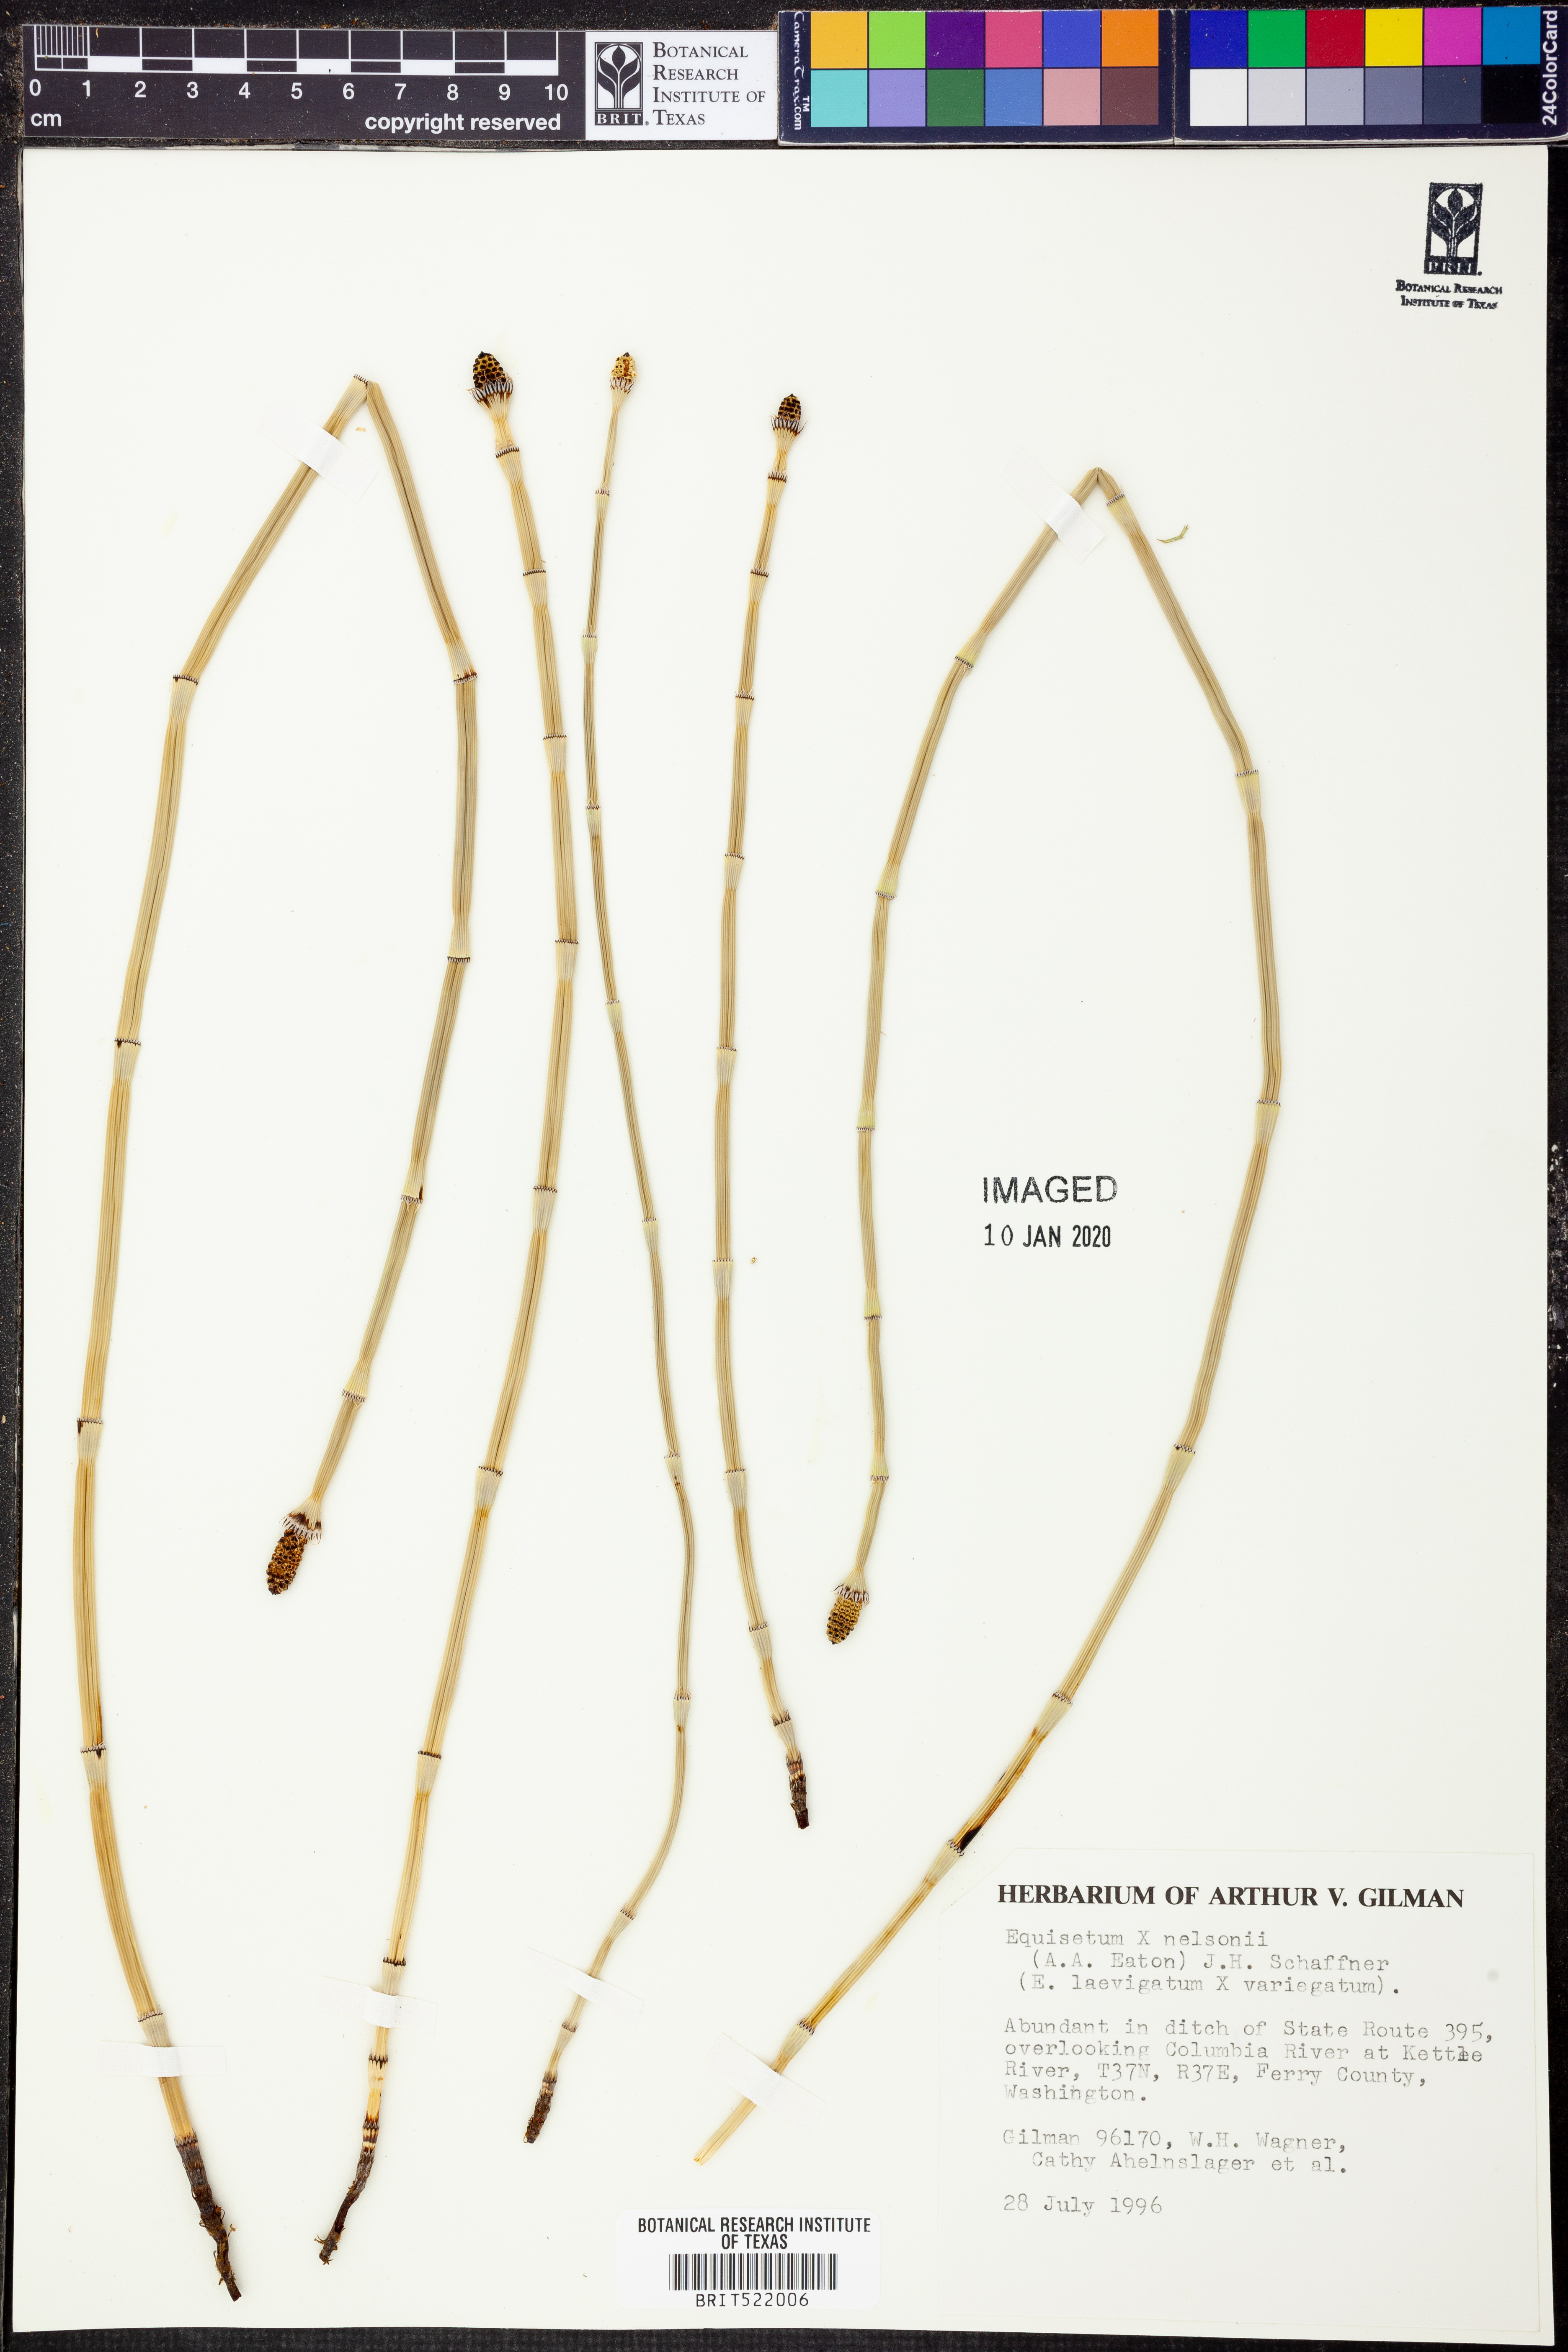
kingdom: Plantae
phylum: Tracheophyta
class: Polypodiopsida
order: Equisetales
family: Equisetaceae
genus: Equisetum
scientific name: Equisetum
